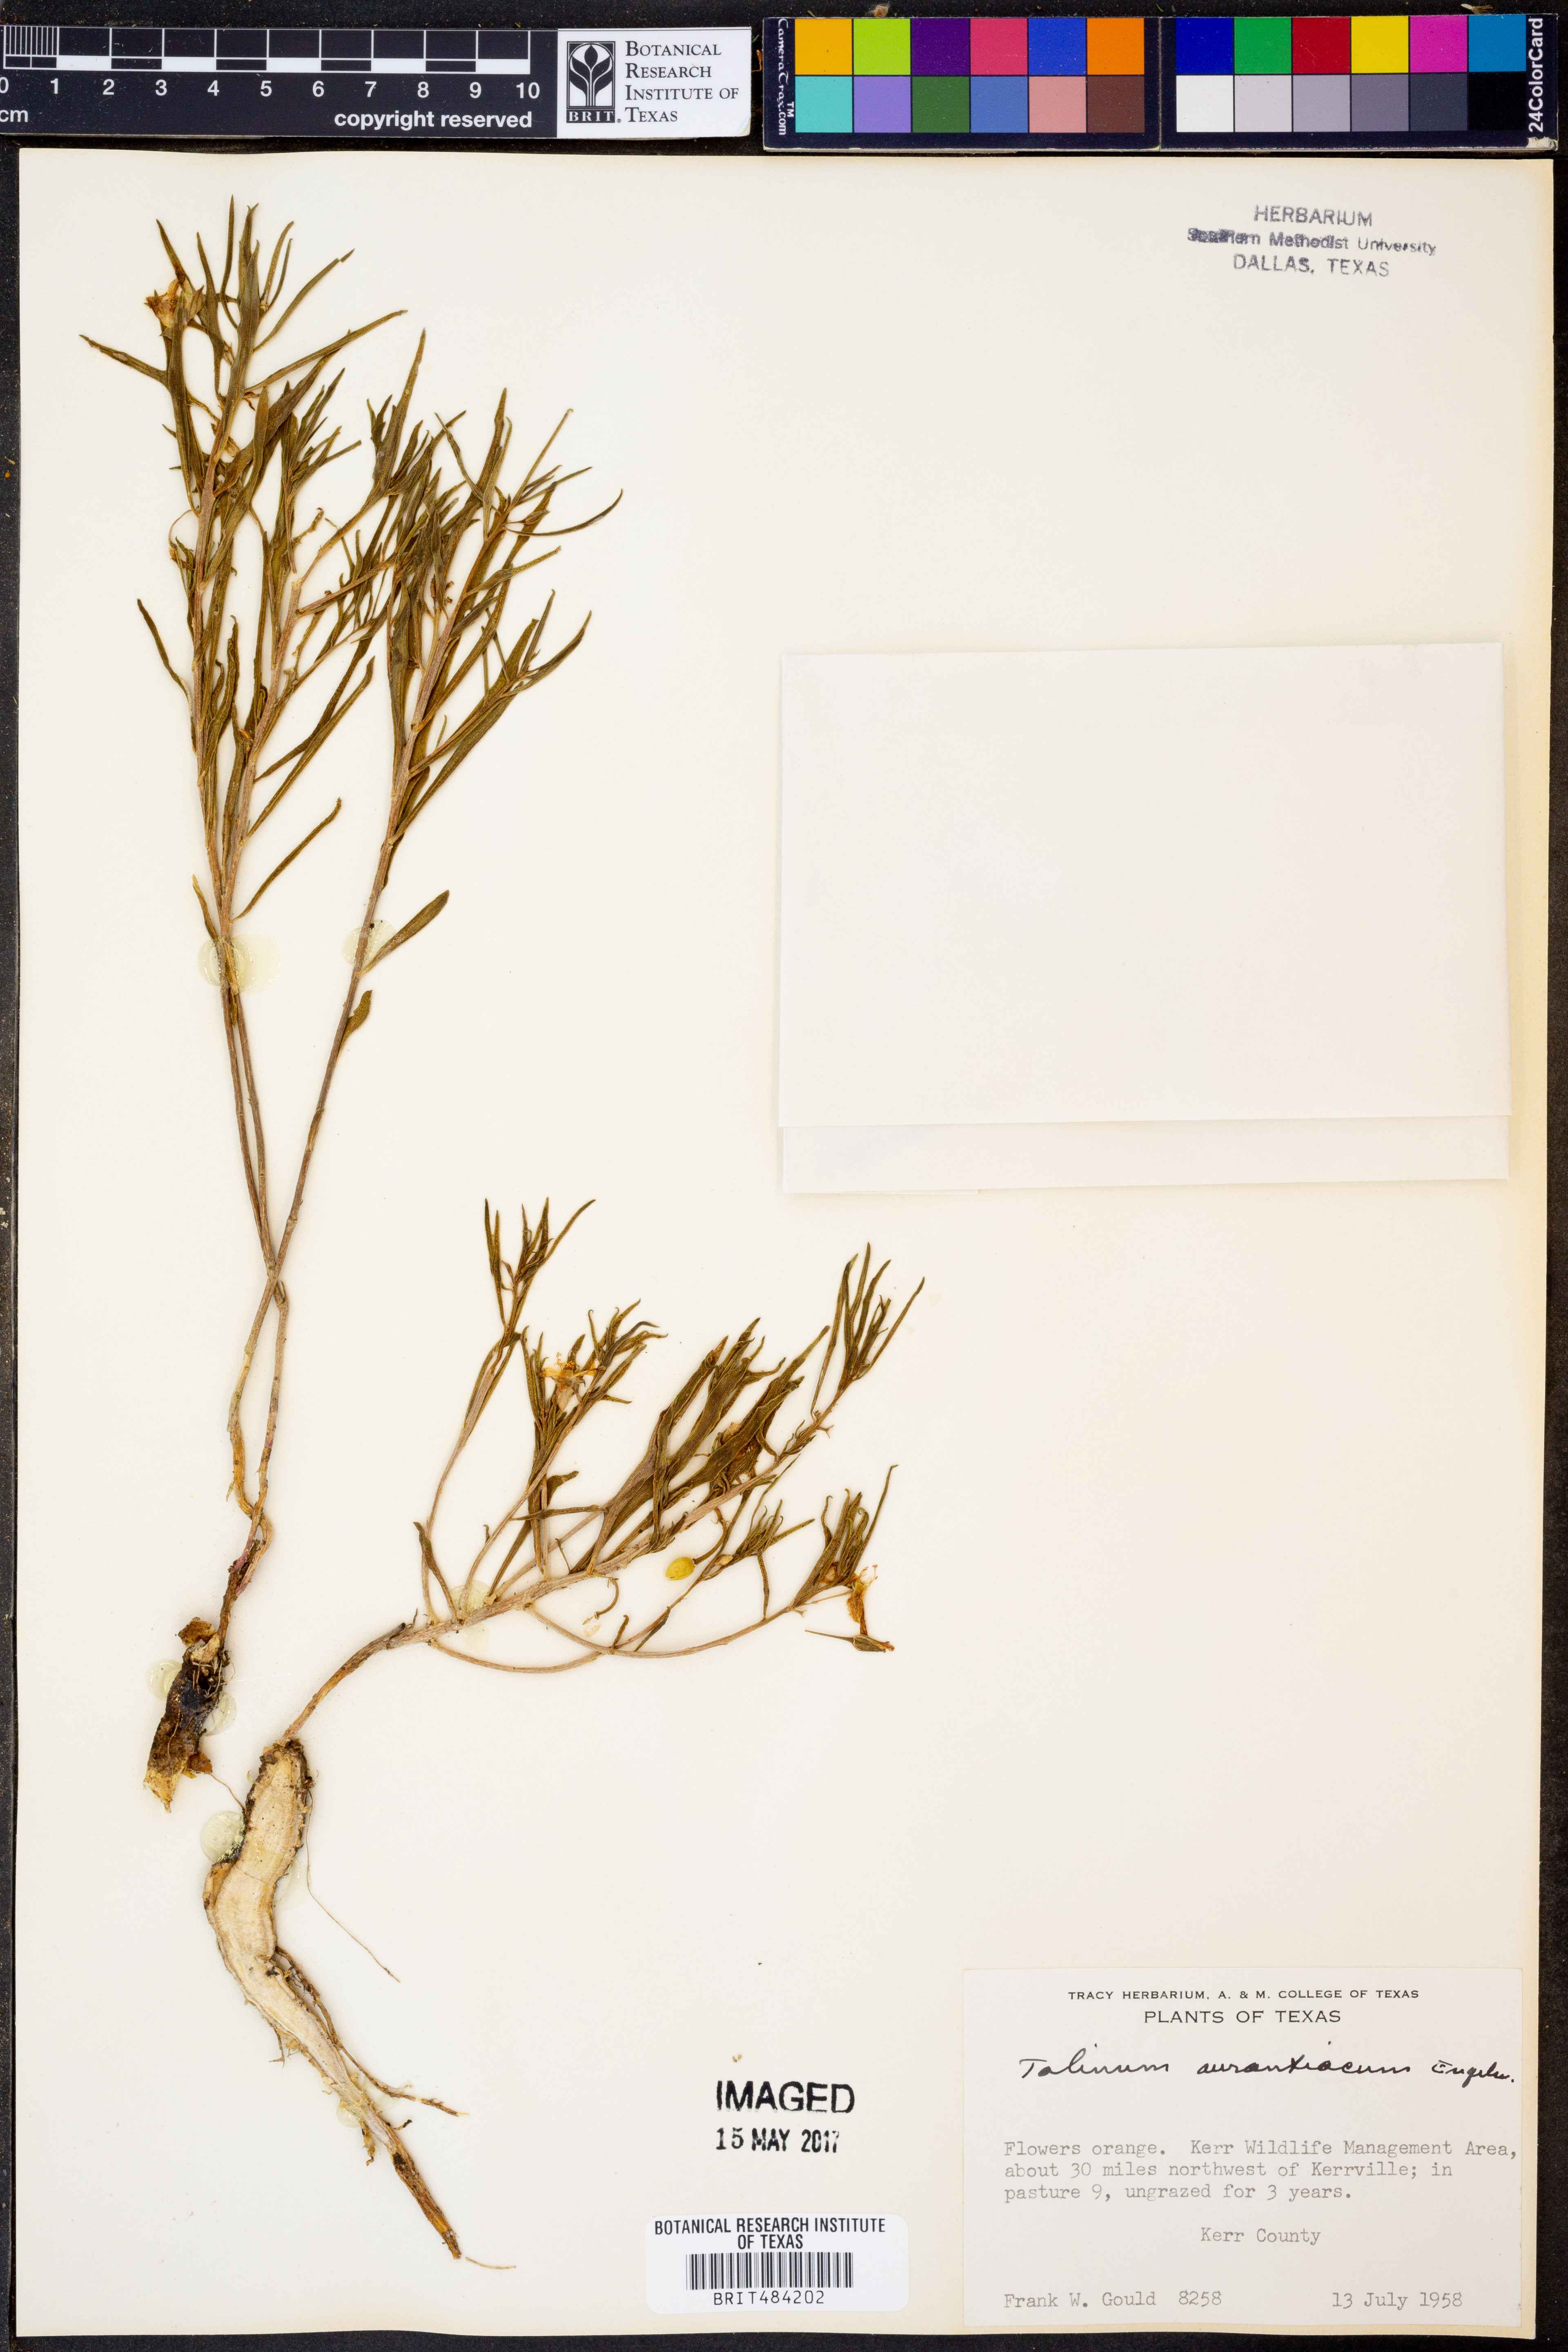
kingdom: Plantae
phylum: Tracheophyta
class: Magnoliopsida
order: Caryophyllales
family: Montiaceae
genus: Phemeranthus
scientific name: Phemeranthus aurantiacus
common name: Orange fameflower
